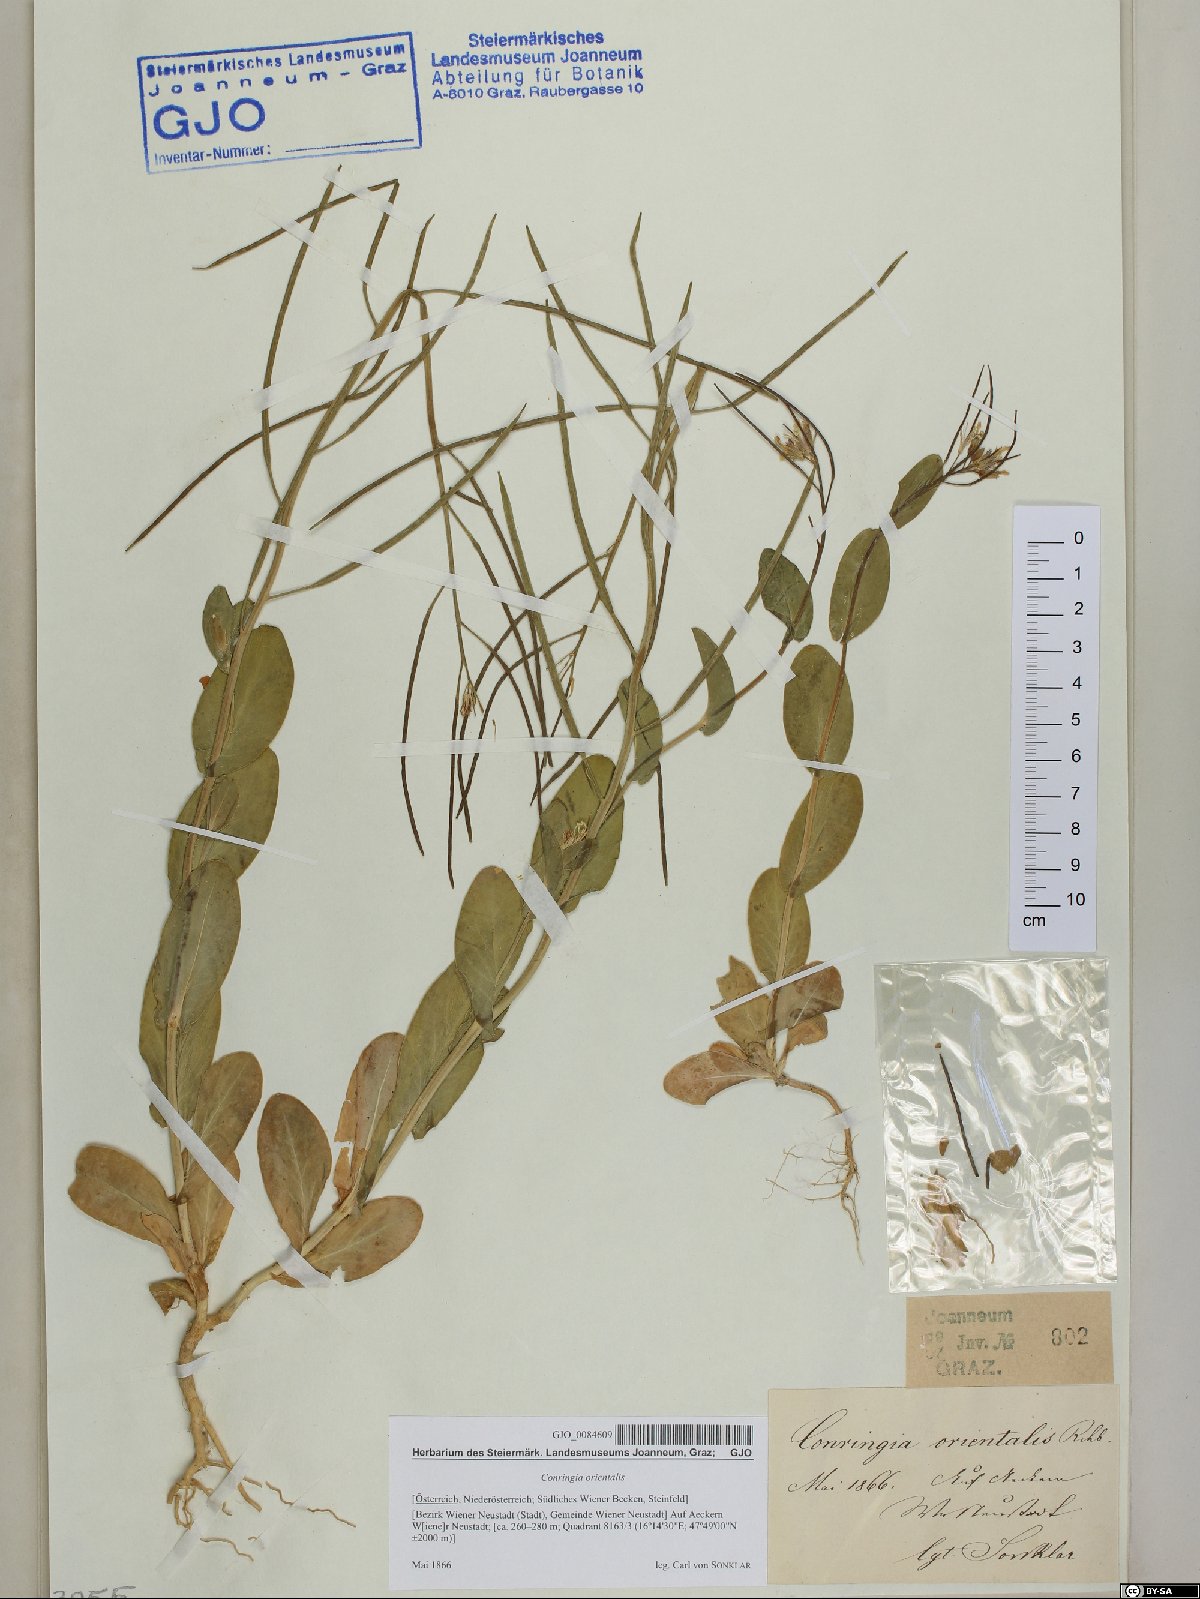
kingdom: Plantae
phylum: Tracheophyta
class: Magnoliopsida
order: Brassicales
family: Brassicaceae
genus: Conringia
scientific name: Conringia orientalis
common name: Hare's ear mustard
